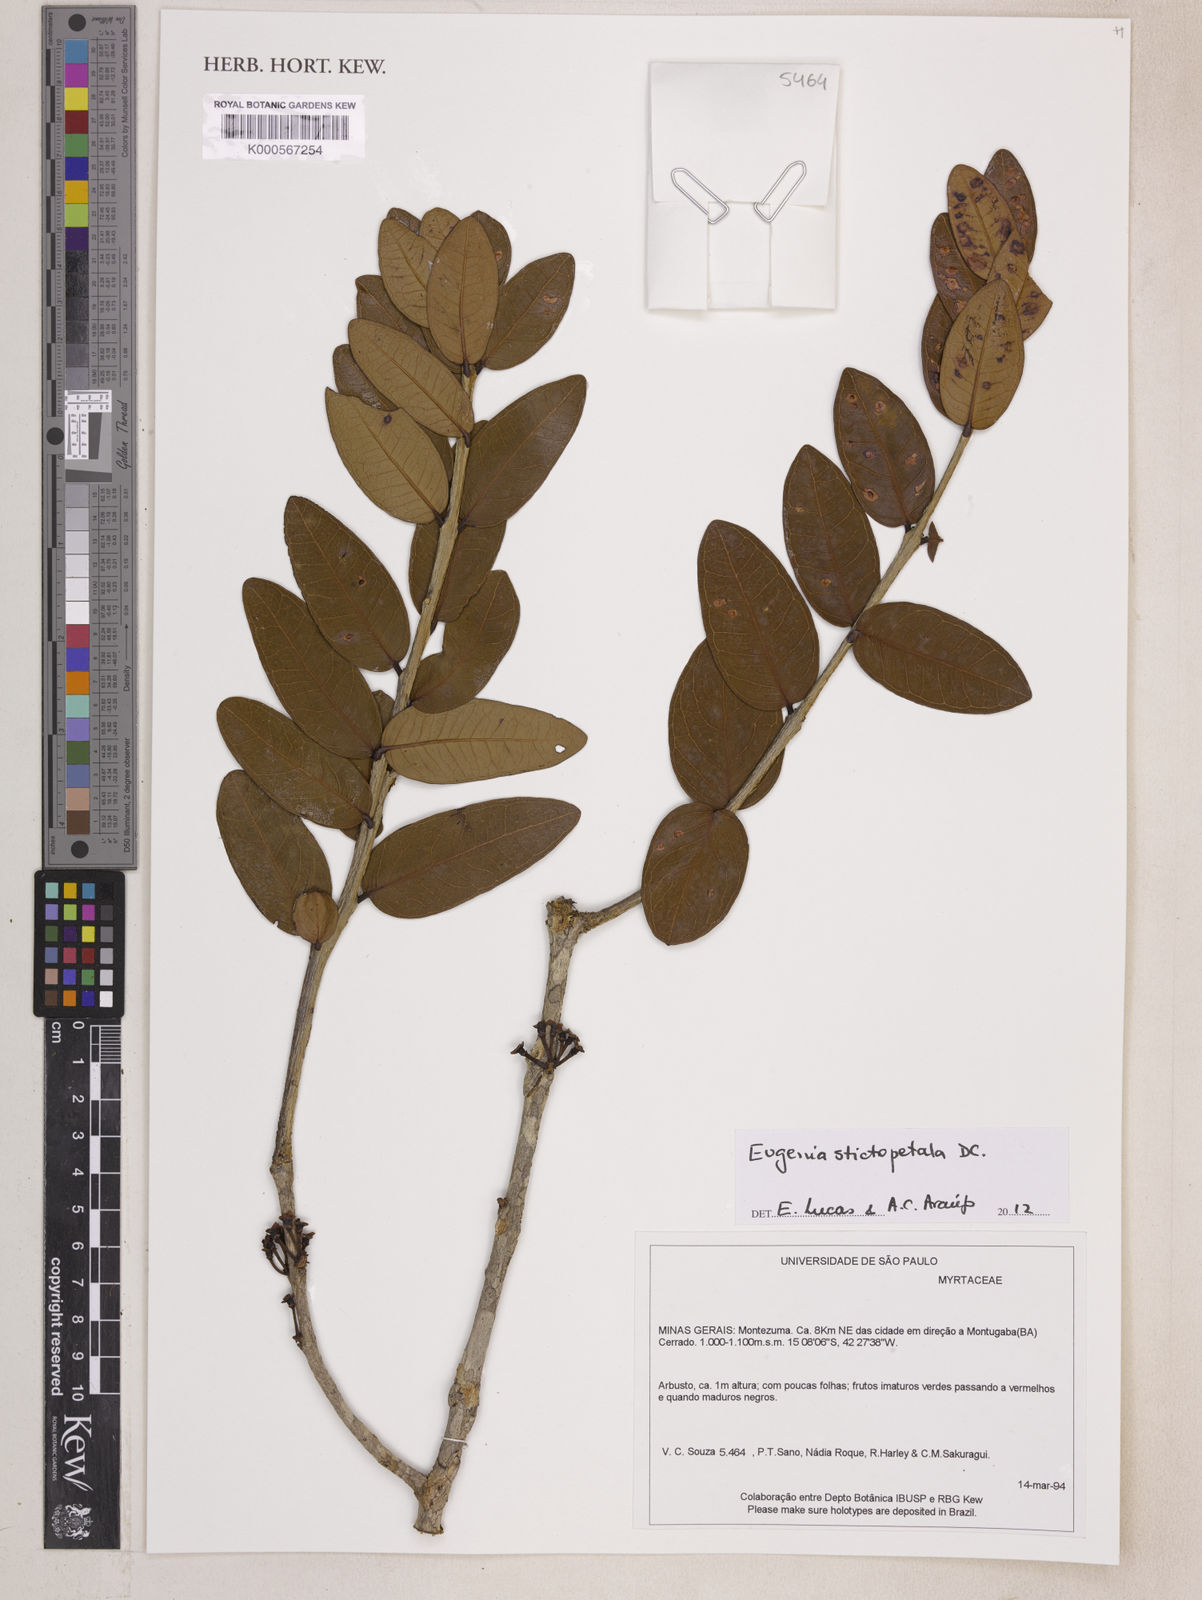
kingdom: Plantae
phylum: Tracheophyta
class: Magnoliopsida
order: Myrtales
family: Myrtaceae
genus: Eugenia
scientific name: Eugenia stictopetala
